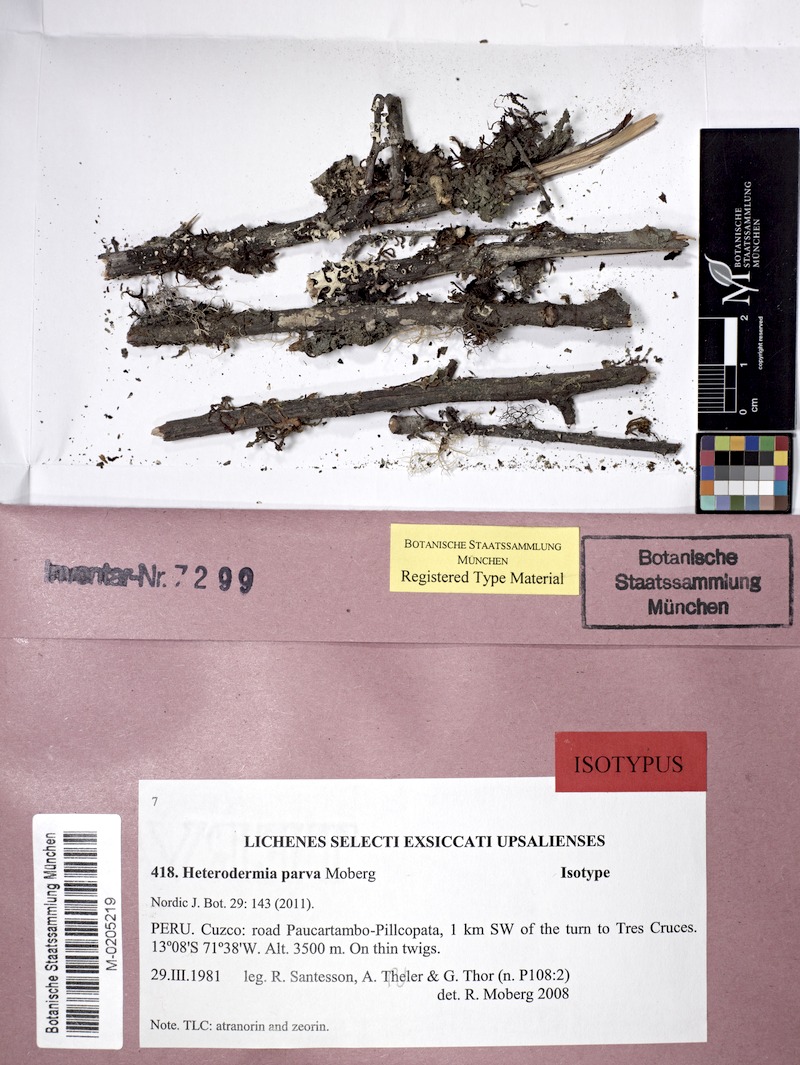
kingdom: Fungi
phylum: Ascomycota
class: Lecanoromycetes
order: Caliciales
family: Physciaceae
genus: Heterodermia
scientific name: Heterodermia parva
